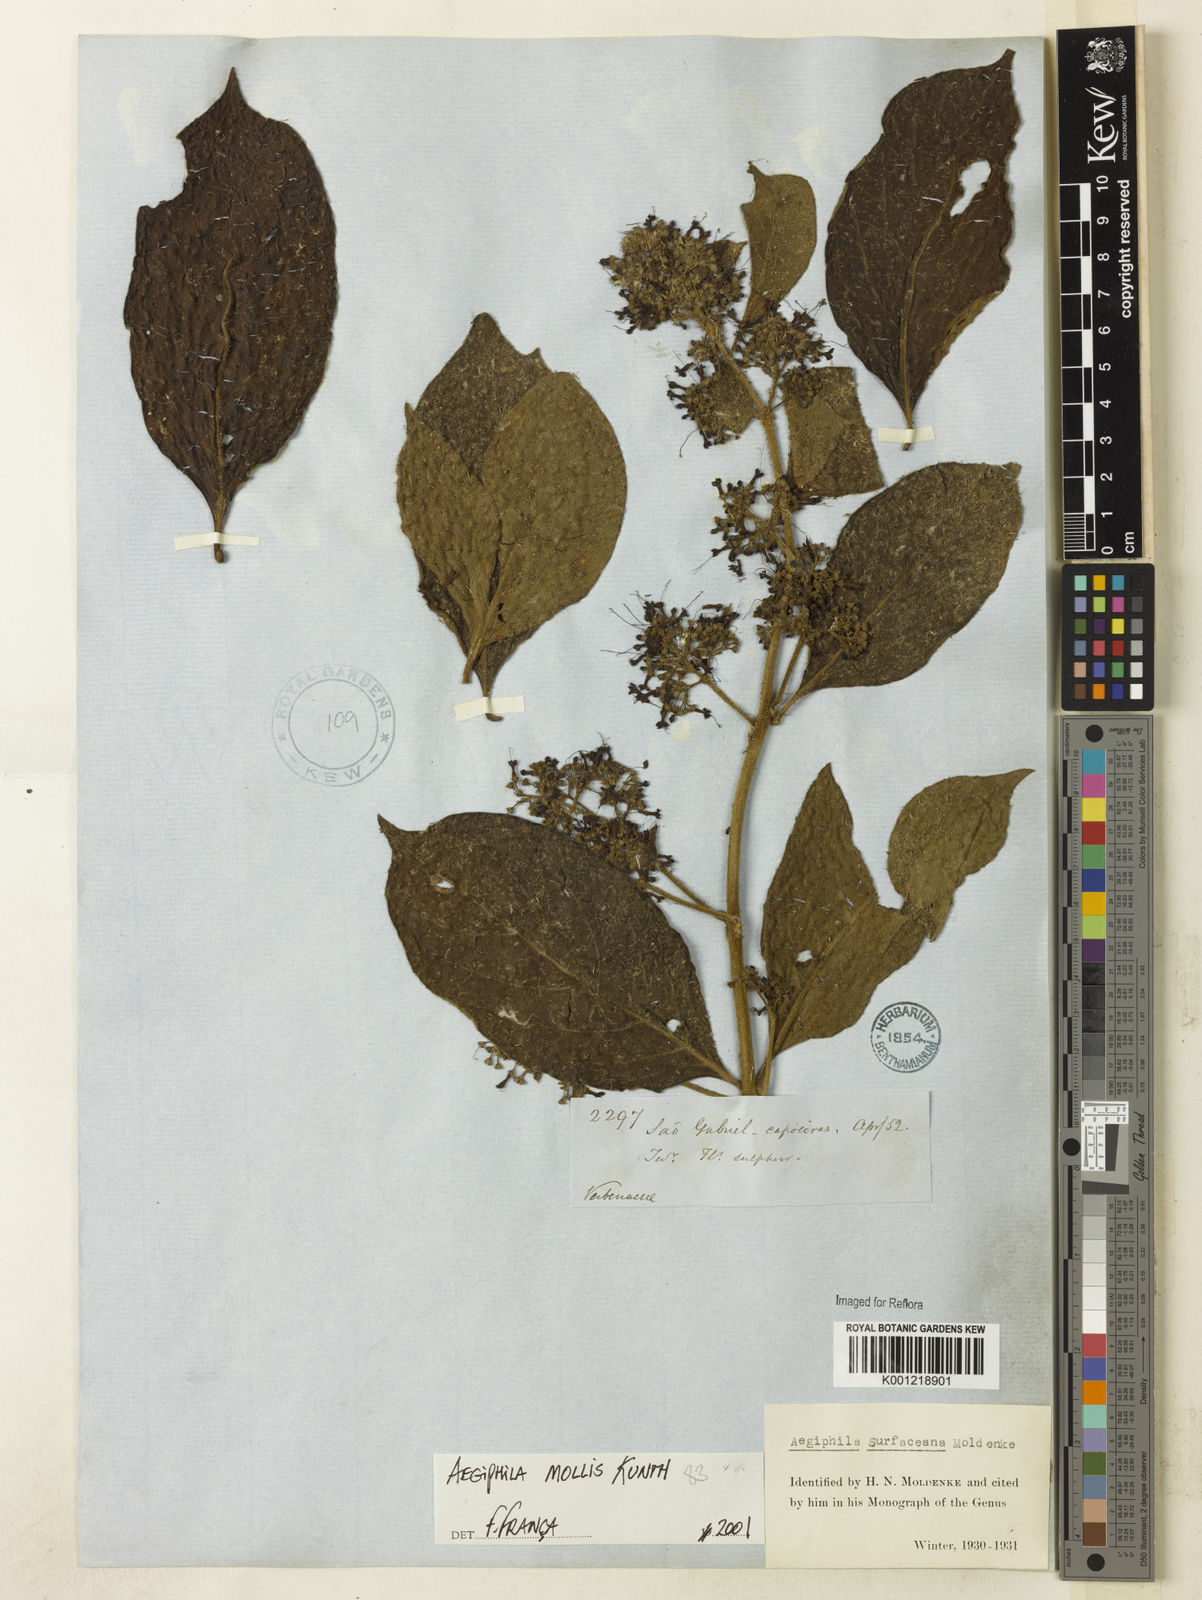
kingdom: Plantae
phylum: Tracheophyta
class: Magnoliopsida
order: Lamiales
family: Lamiaceae
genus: Aegiphila
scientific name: Aegiphila mollis
